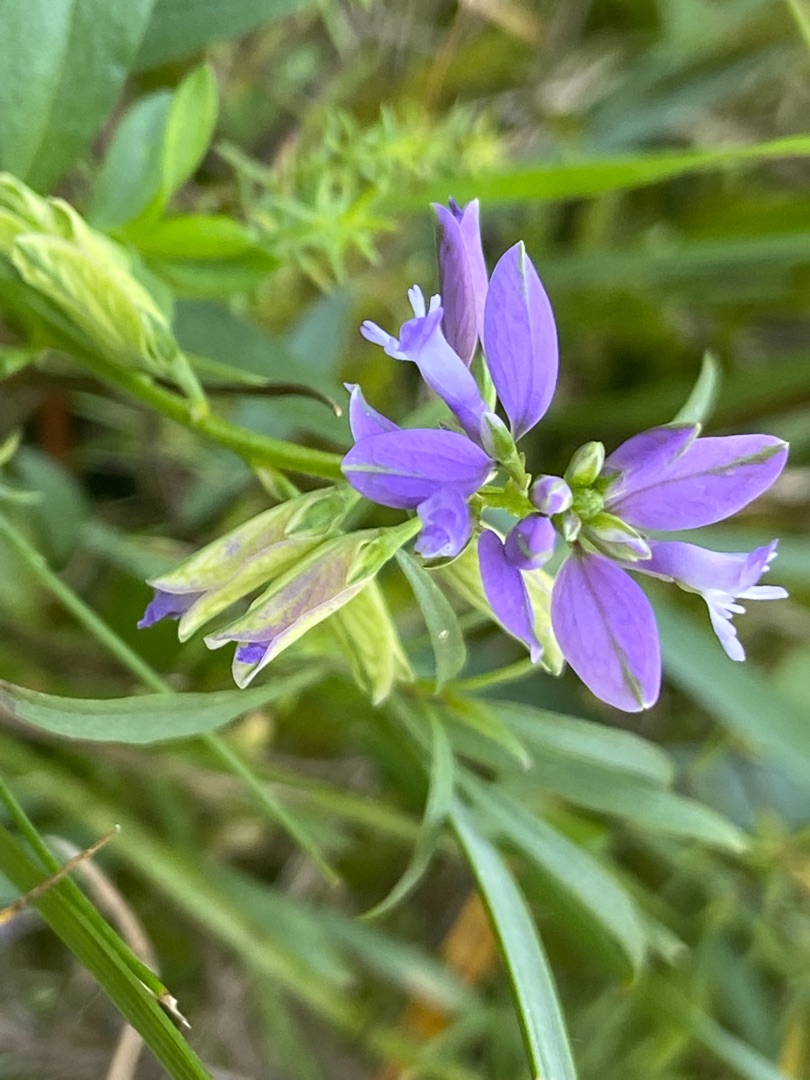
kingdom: Plantae
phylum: Tracheophyta
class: Magnoliopsida
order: Fabales
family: Polygalaceae
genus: Polygala
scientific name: Polygala vulgaris
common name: Almindelig mælkeurt
